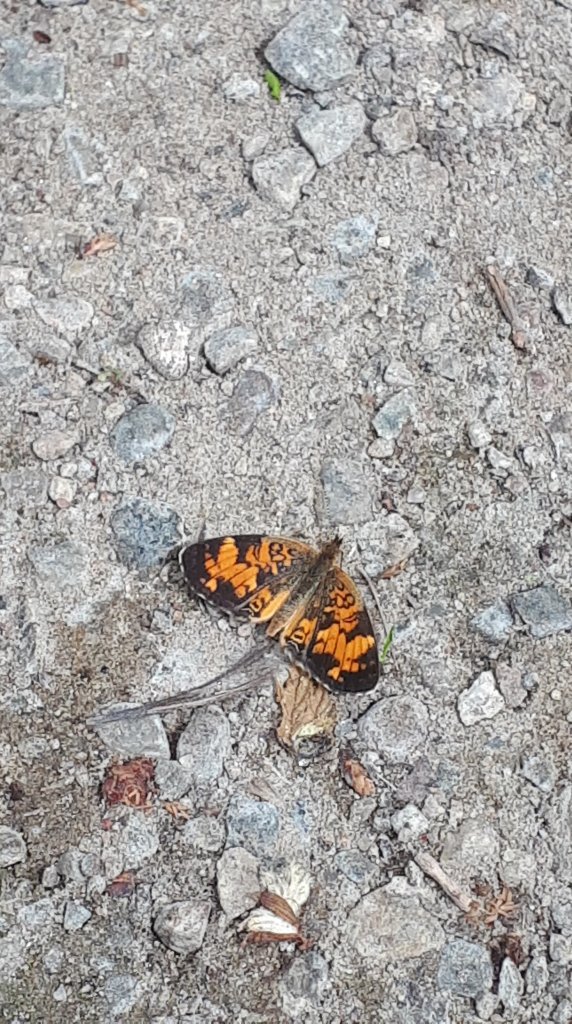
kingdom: Animalia
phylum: Arthropoda
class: Insecta
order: Lepidoptera
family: Nymphalidae
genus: Phyciodes
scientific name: Phyciodes tharos
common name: Pearl Crescent
